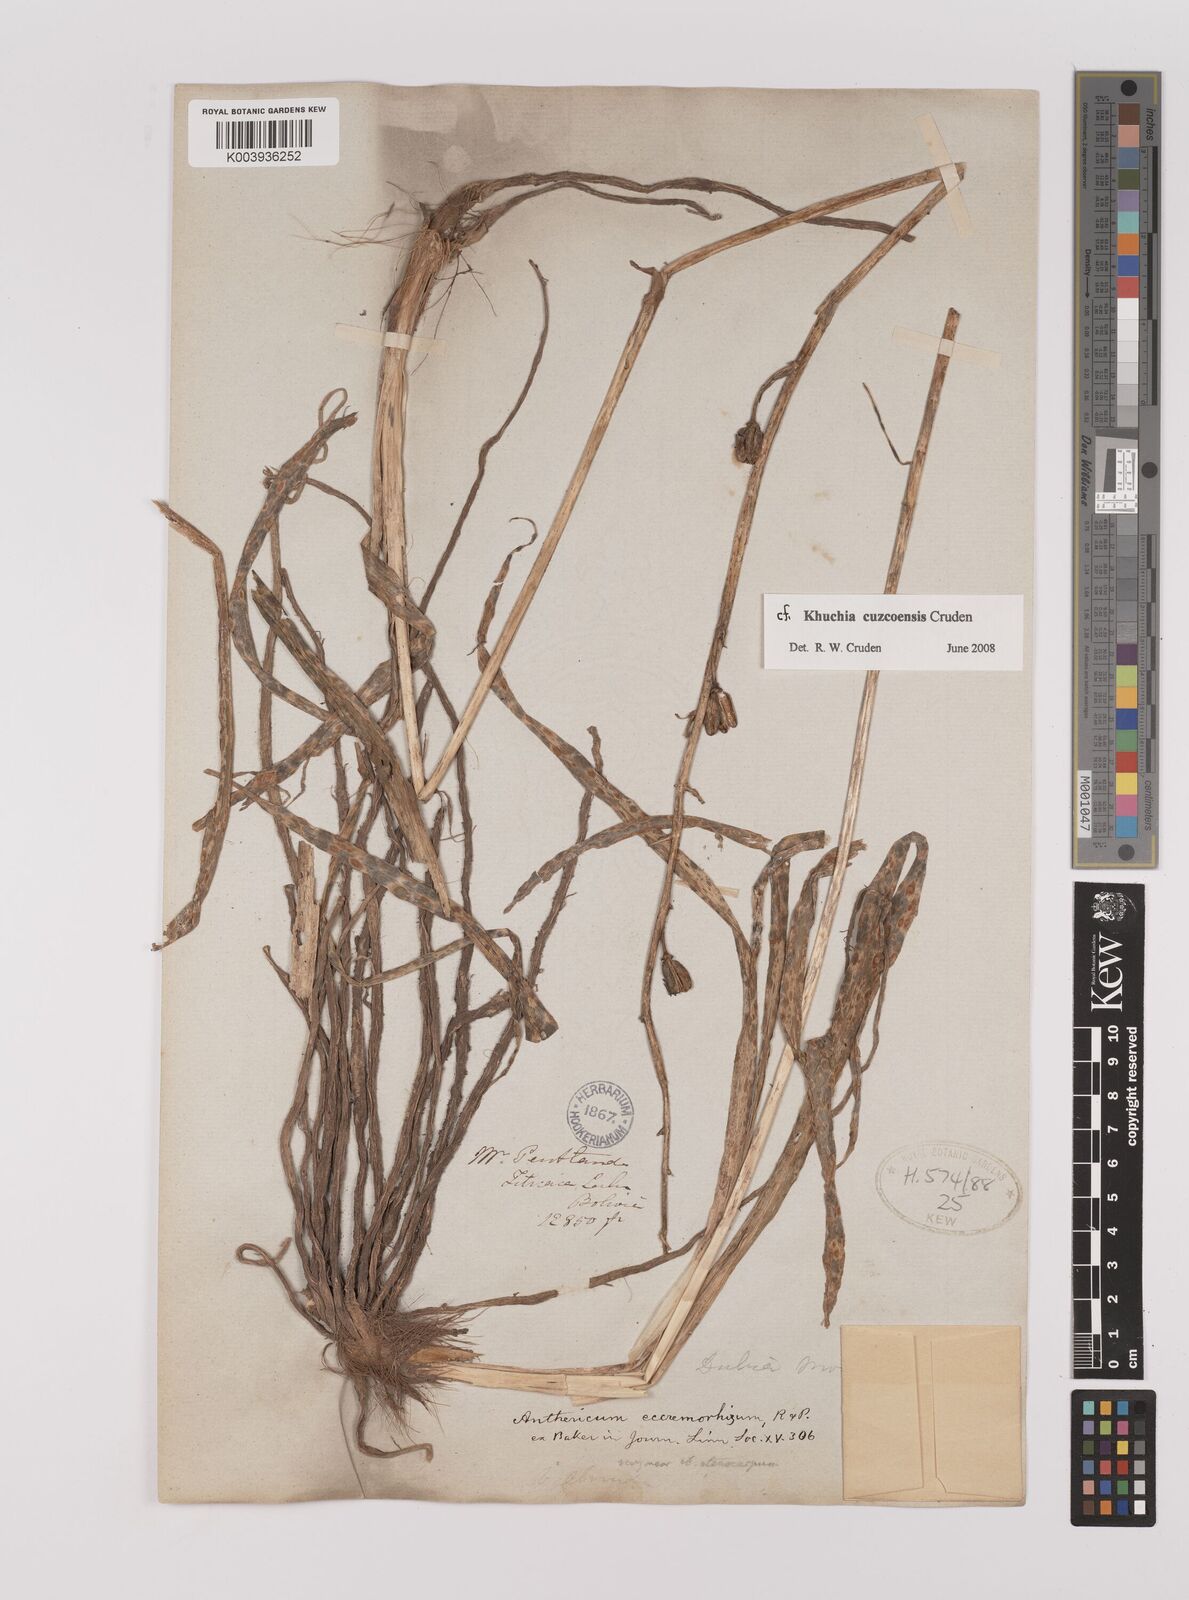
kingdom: Plantae
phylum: Tracheophyta
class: Liliopsida
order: Asparagales
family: Asparagaceae
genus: Echeandia
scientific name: Echeandia
